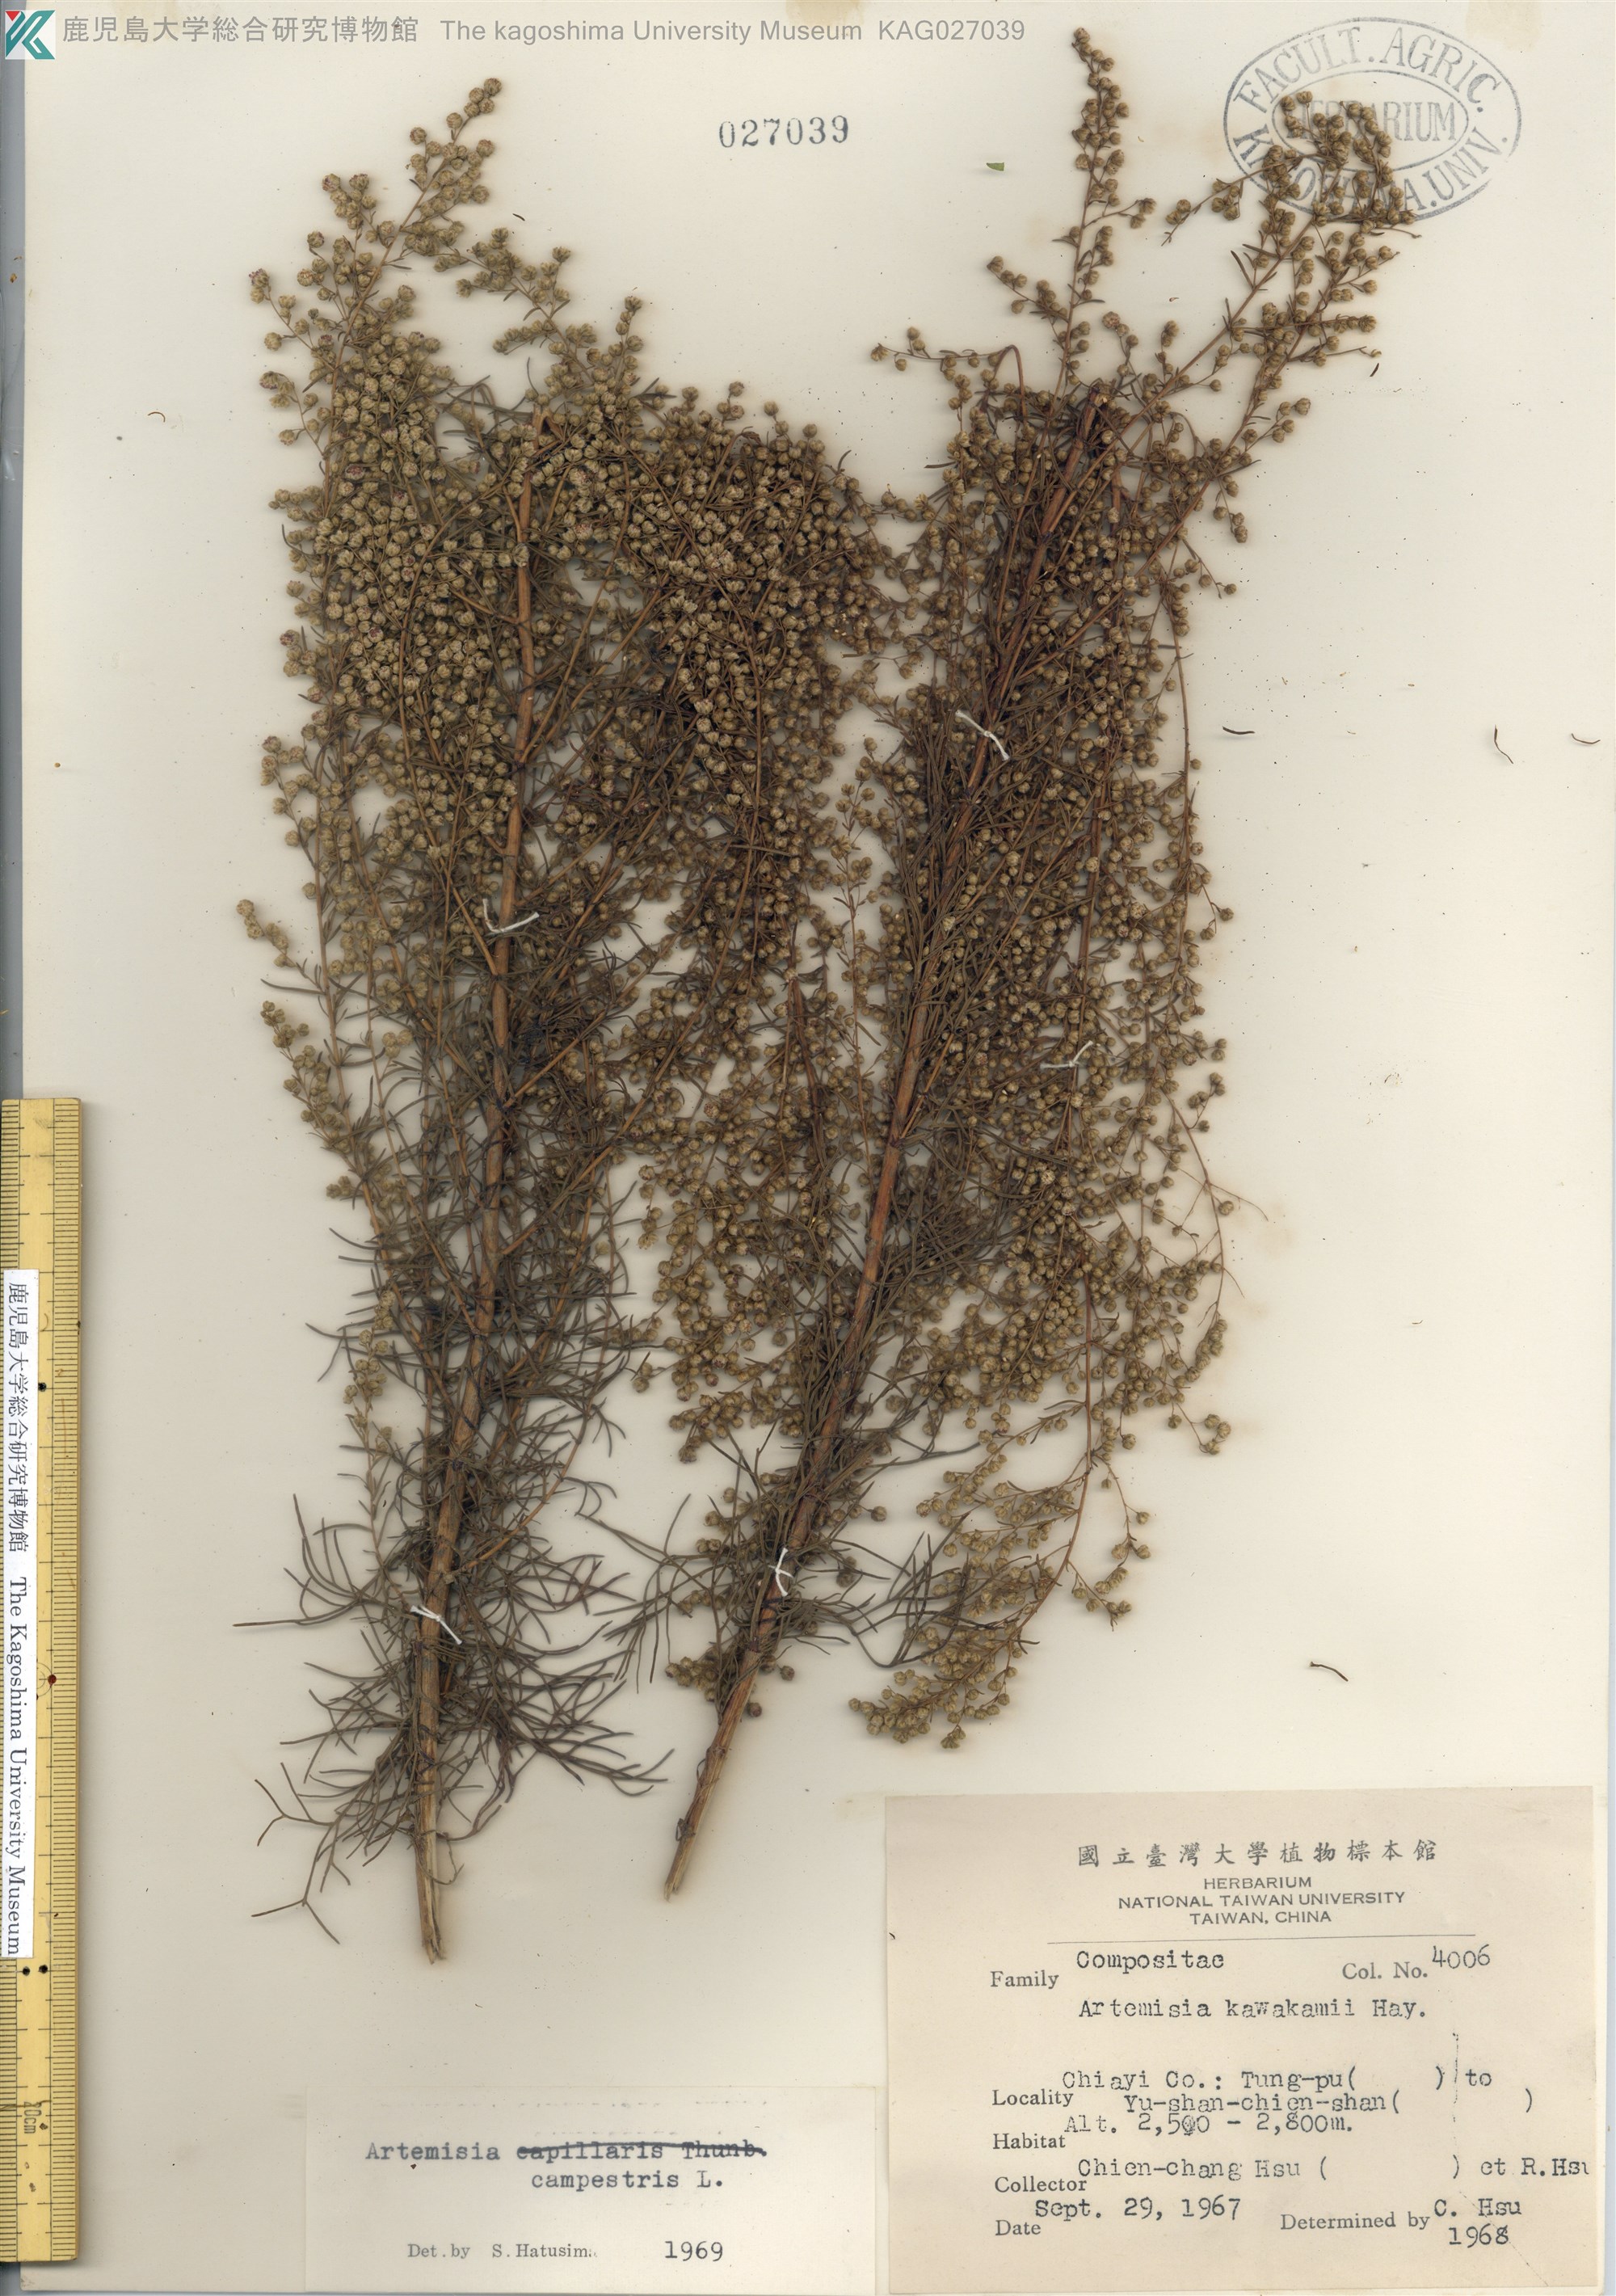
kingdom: Plantae
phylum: Tracheophyta
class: Magnoliopsida
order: Asterales
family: Asteraceae
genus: Artemisia
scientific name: Artemisia morrisonensis
